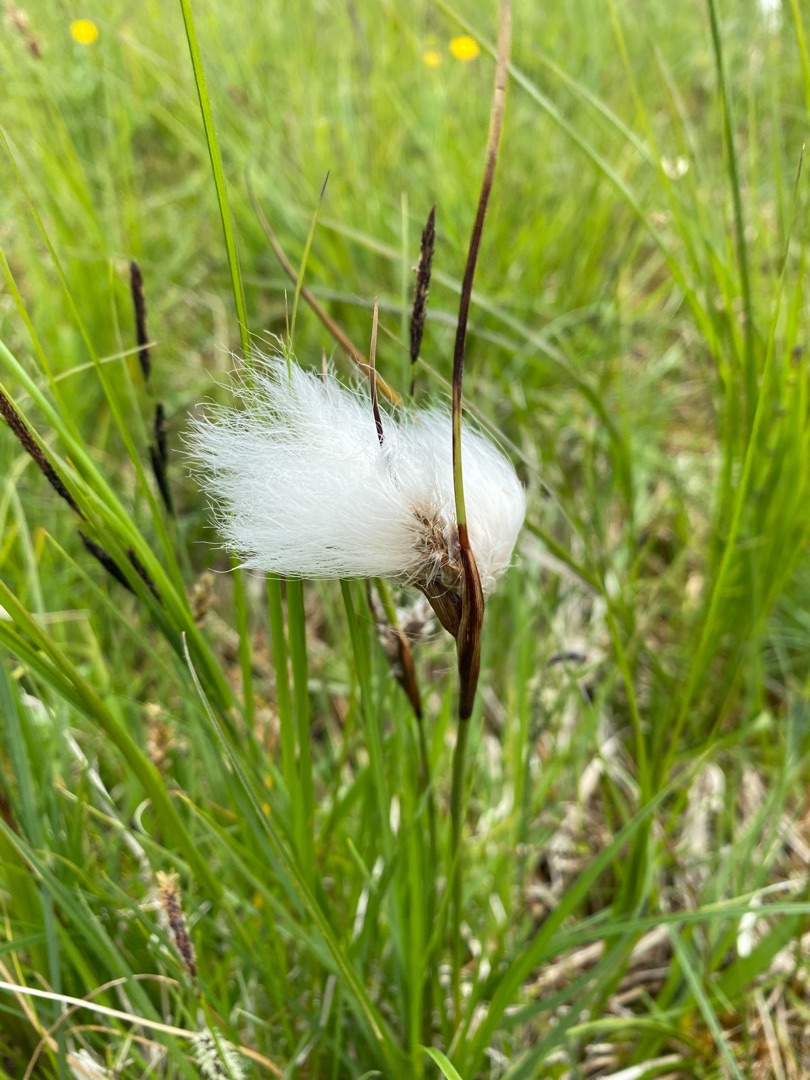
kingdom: Plantae
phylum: Tracheophyta
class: Liliopsida
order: Poales
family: Cyperaceae
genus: Eriophorum
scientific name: Eriophorum angustifolium
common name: Smalbladet kæruld
